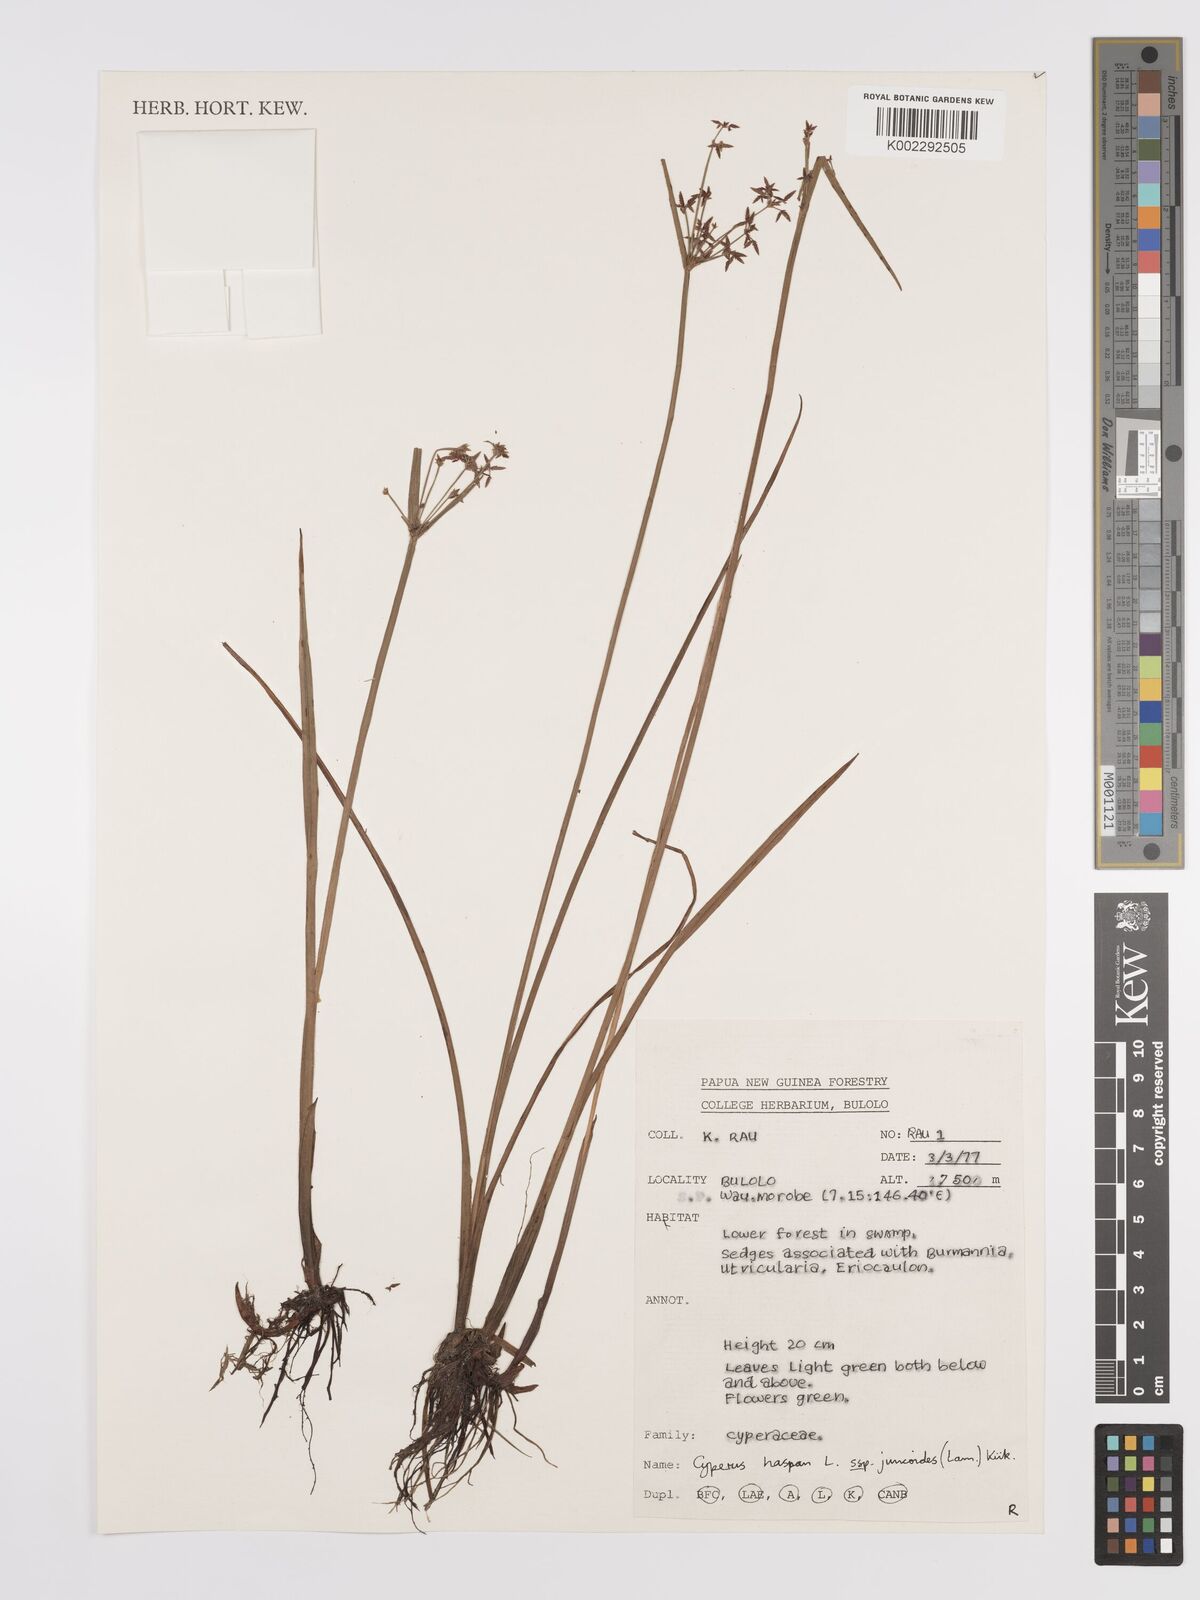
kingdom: Plantae
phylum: Tracheophyta
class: Liliopsida
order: Poales
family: Cyperaceae
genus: Cyperus
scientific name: Cyperus haspan
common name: Haspan flatsedge
